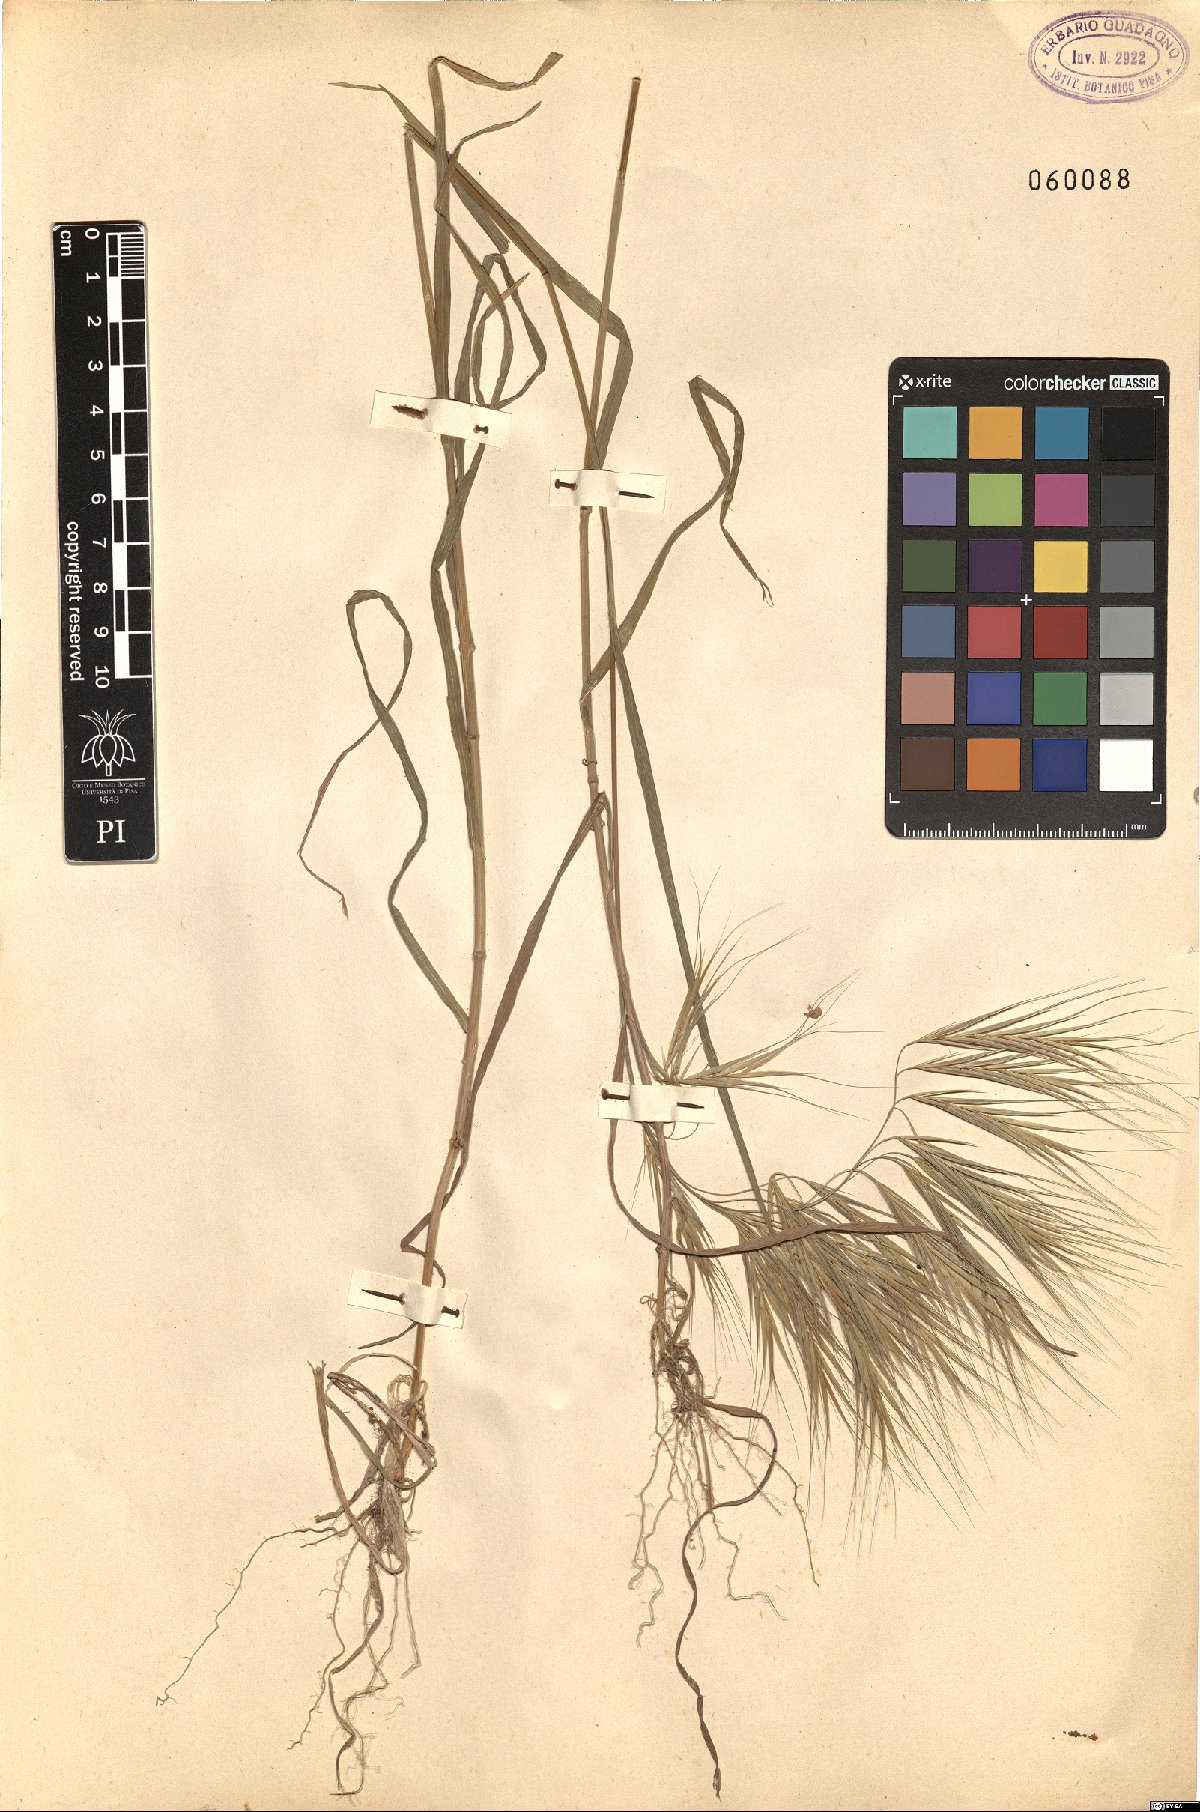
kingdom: Plantae
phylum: Tracheophyta
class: Liliopsida
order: Poales
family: Poaceae
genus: Brachypodium
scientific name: Brachypodium
